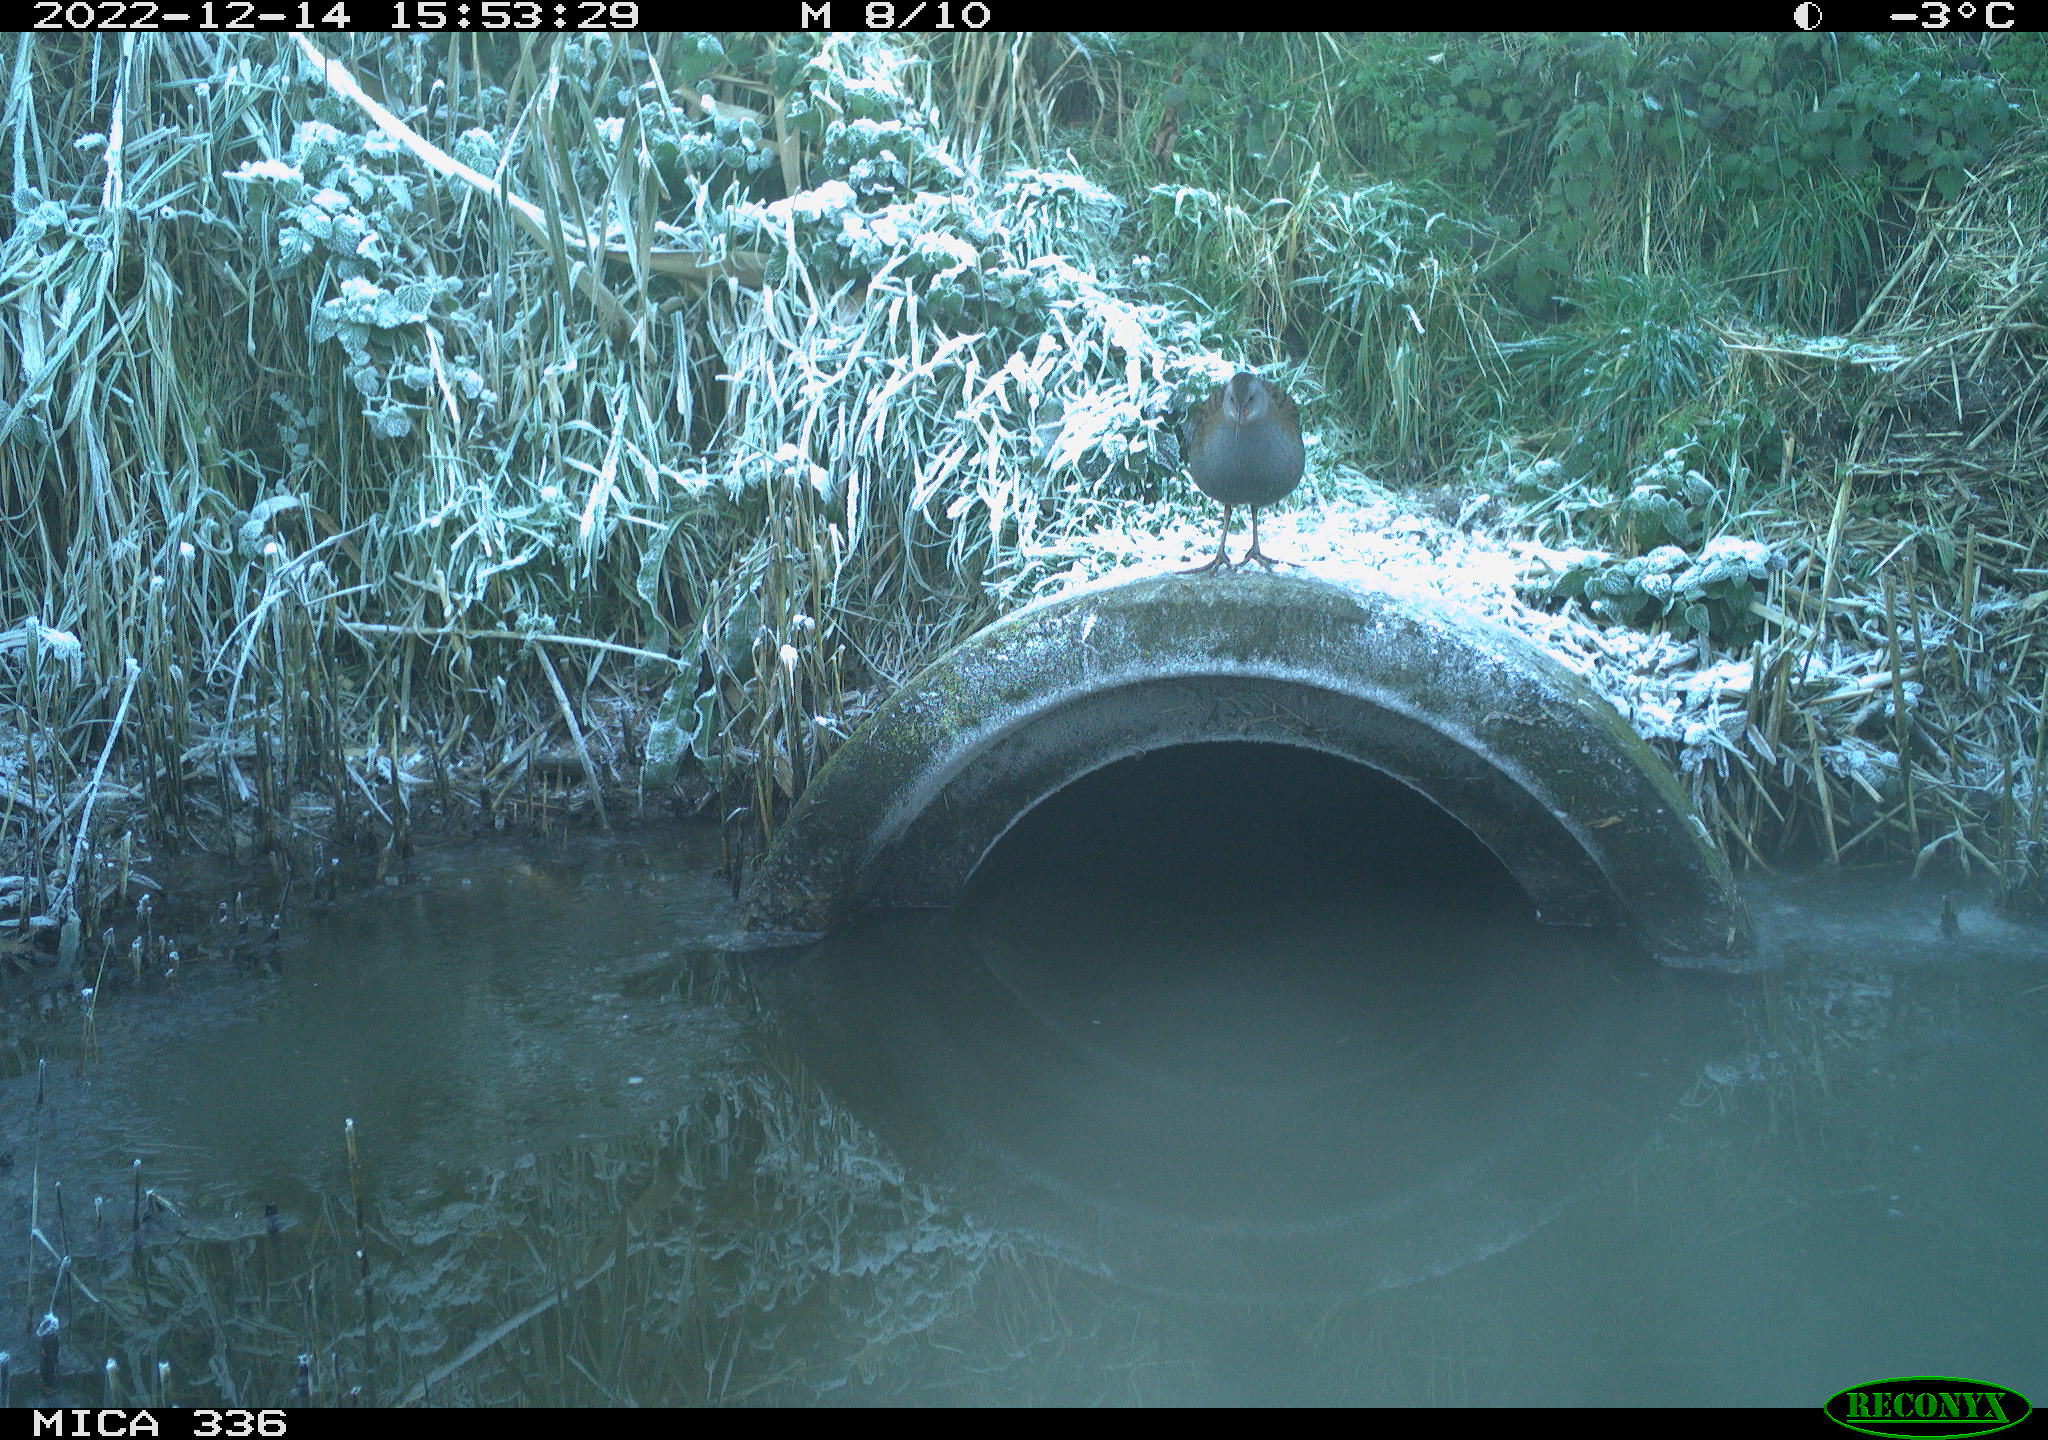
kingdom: Animalia
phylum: Chordata
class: Aves
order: Gruiformes
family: Rallidae
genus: Rallus
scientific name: Rallus aquaticus
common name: Water rail
